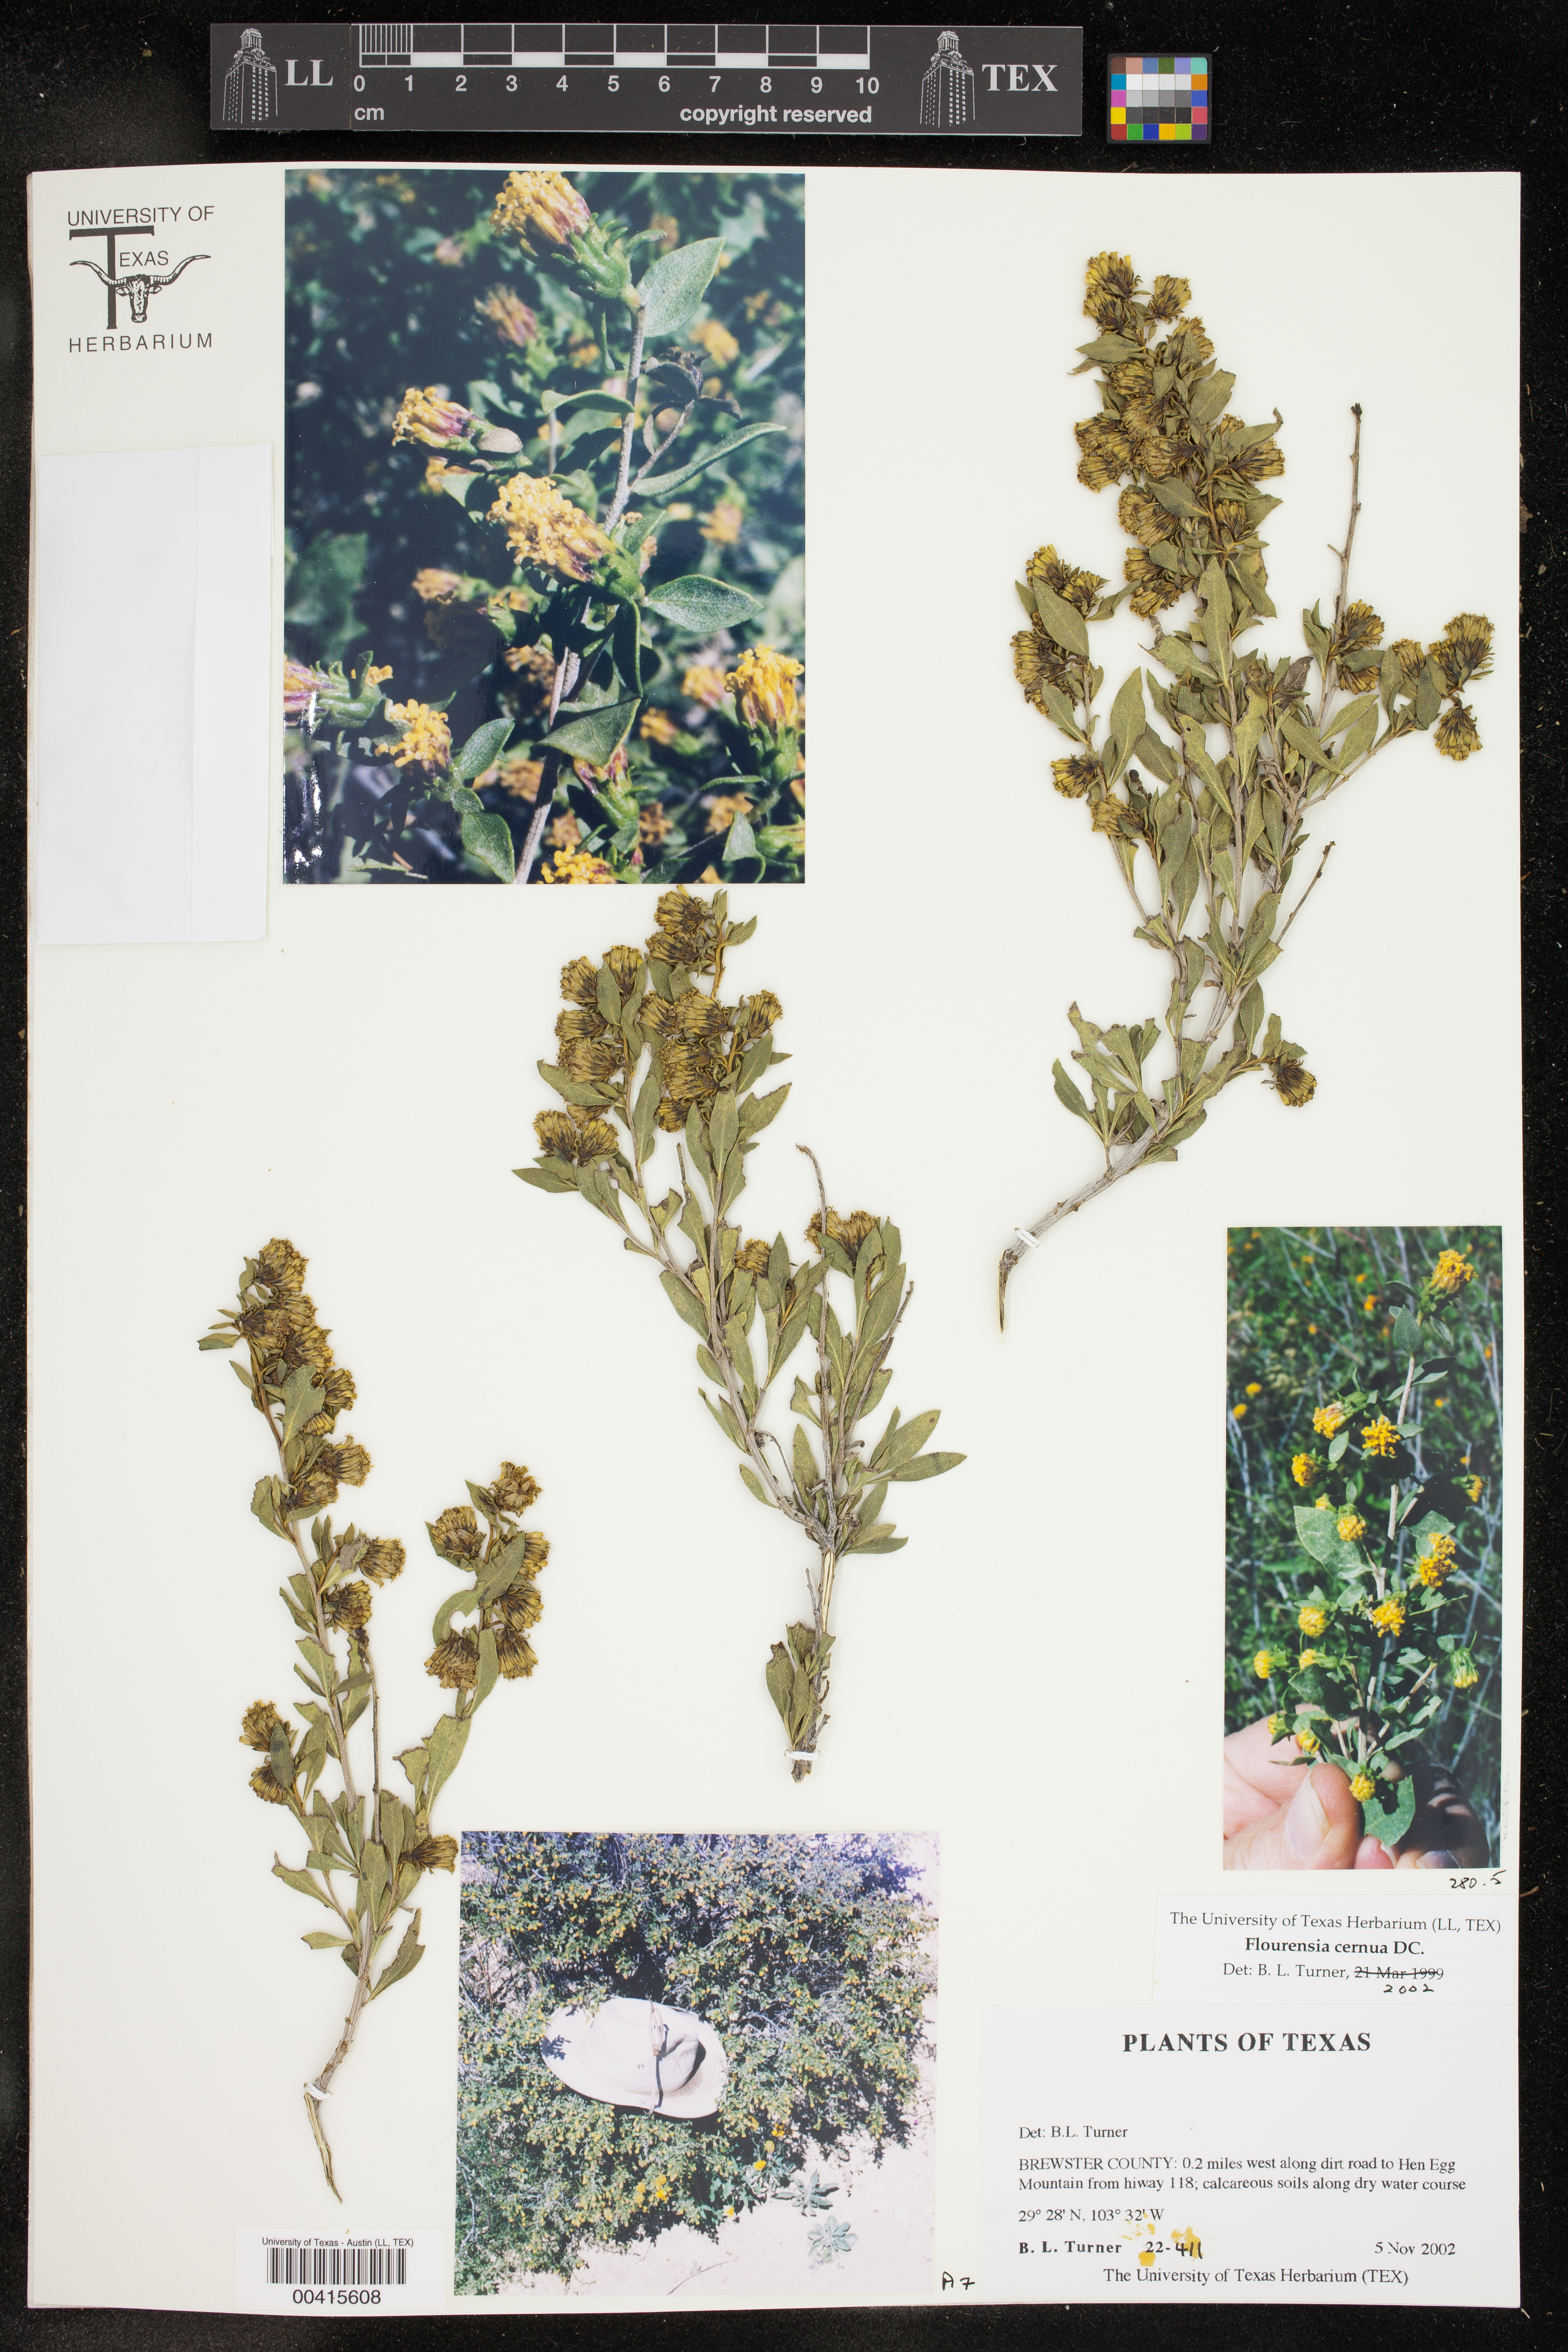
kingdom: Plantae
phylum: Tracheophyta
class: Magnoliopsida
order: Asterales
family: Asteraceae
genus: Flourensia
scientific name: Flourensia cernua
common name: Varnishbush
